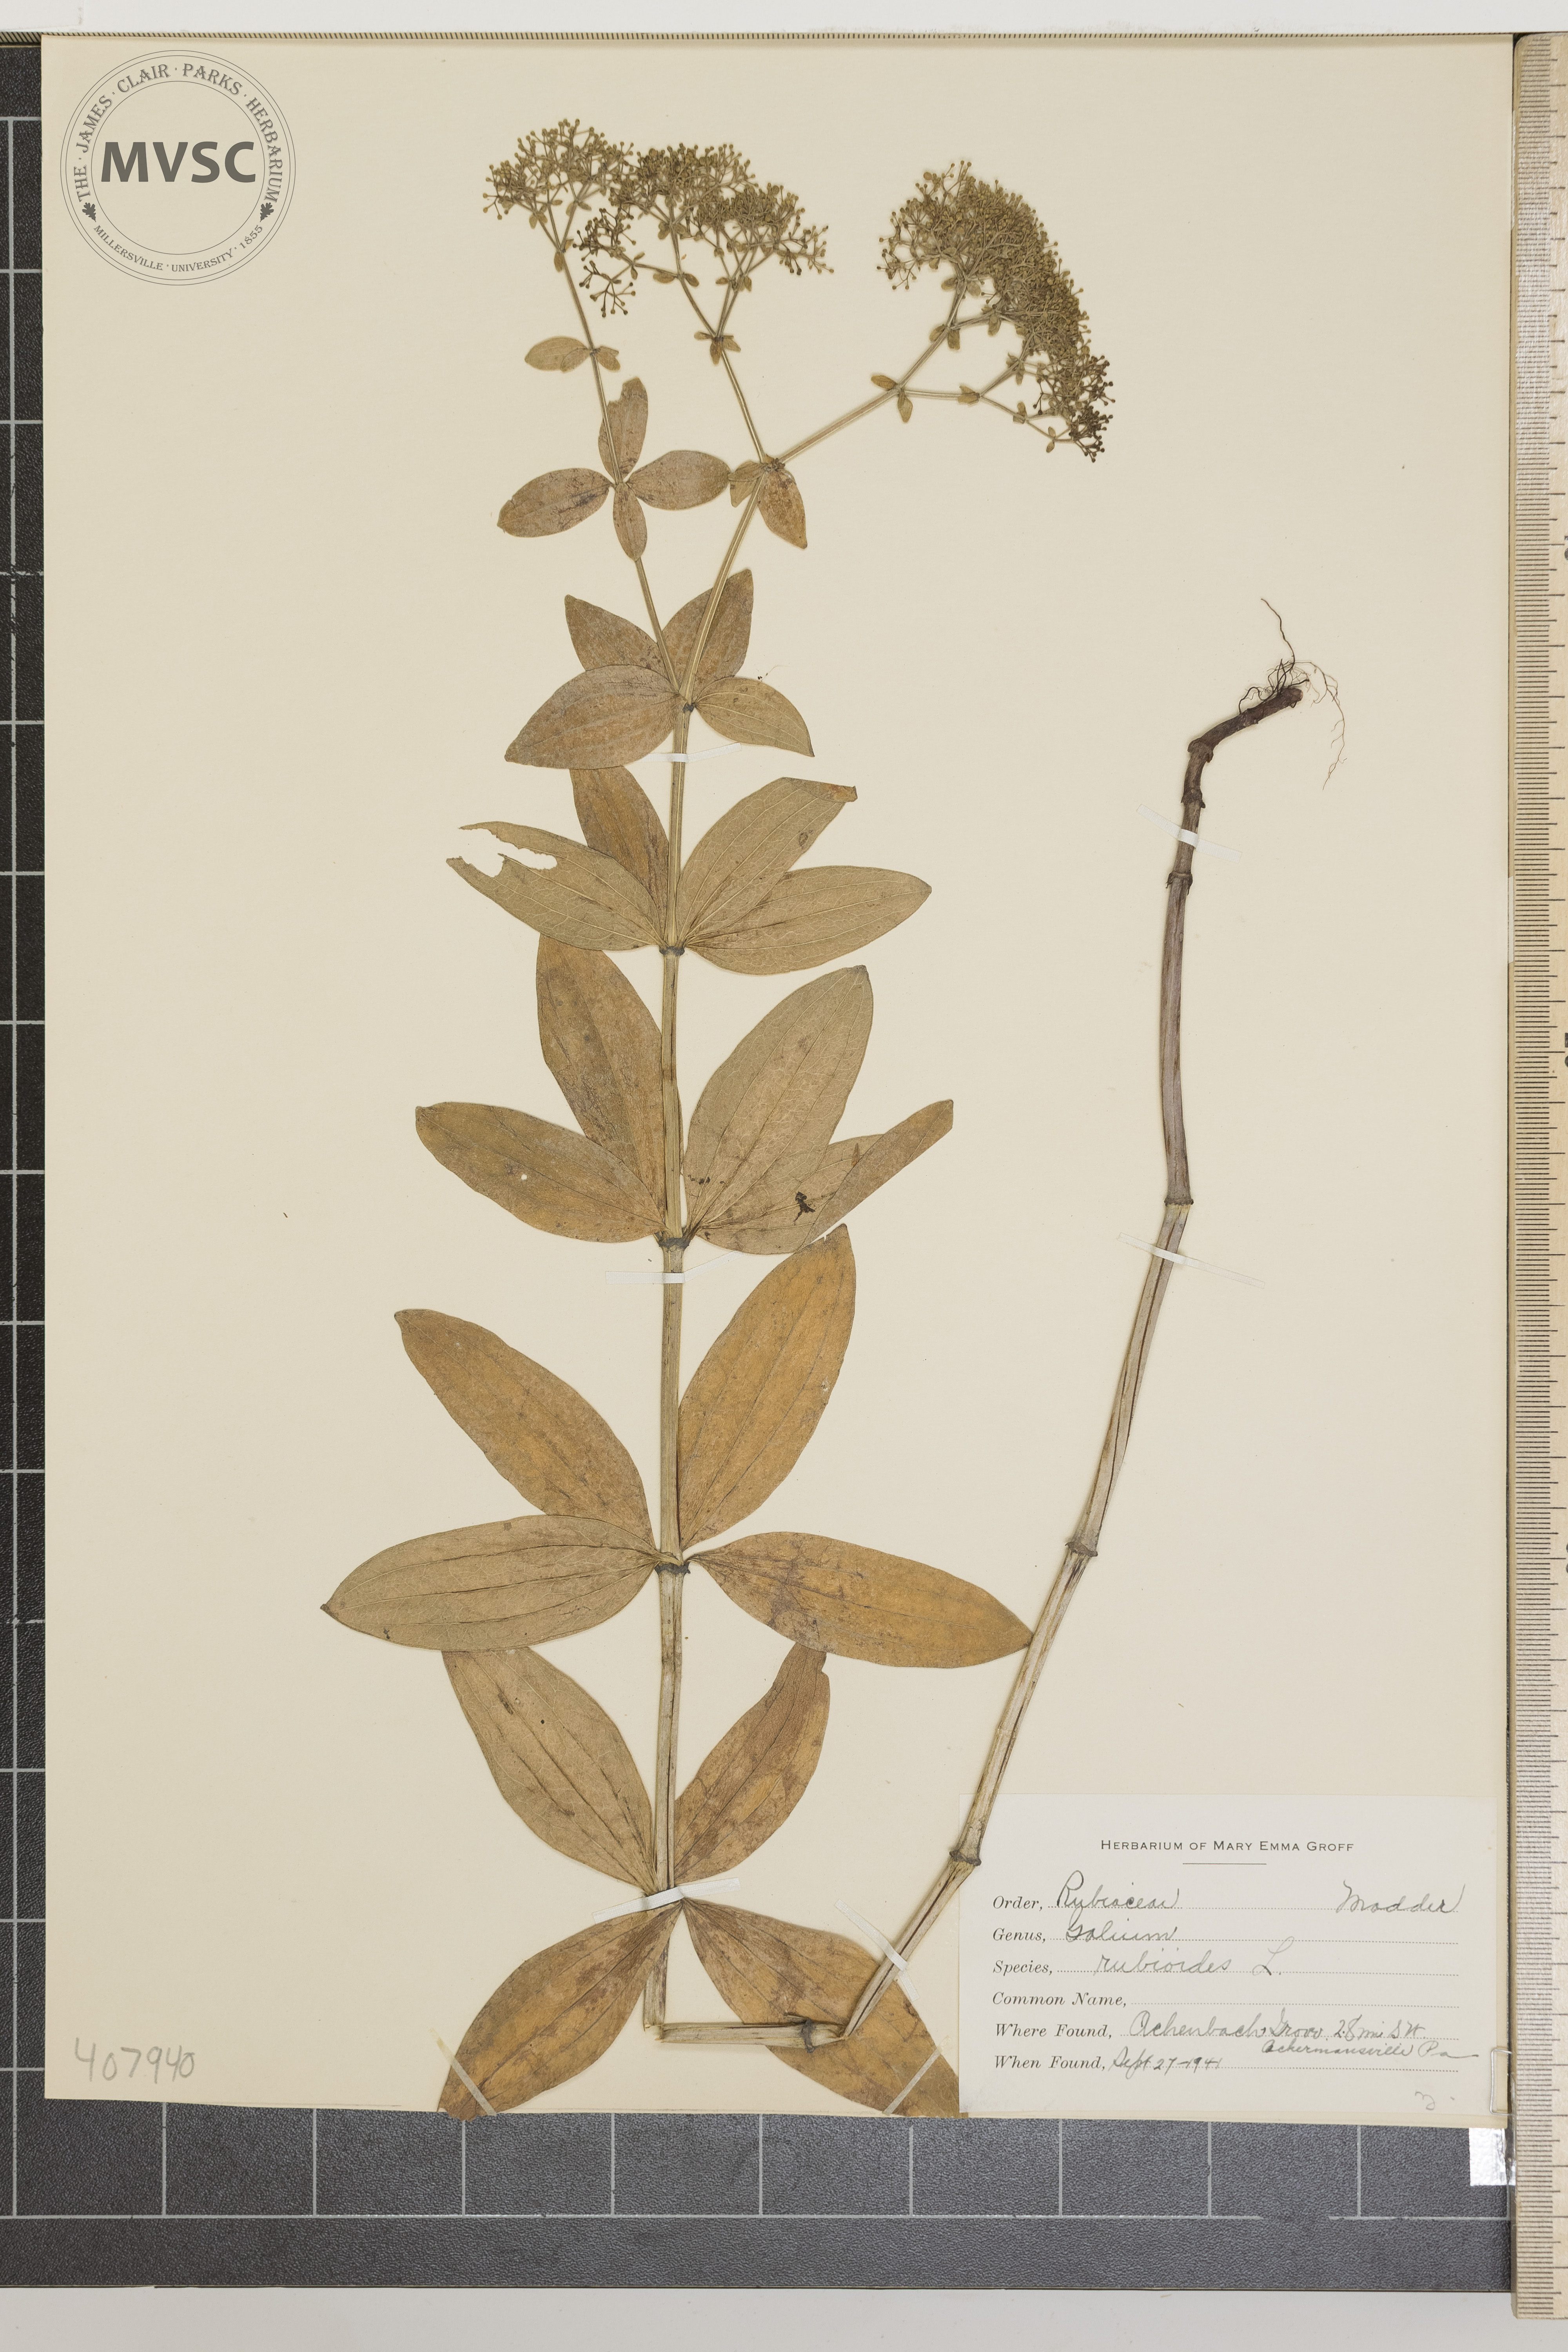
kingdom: Plantae
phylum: Tracheophyta
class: Magnoliopsida
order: Gentianales
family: Rubiaceae
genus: Galium
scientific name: Galium rubioides
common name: European bedstraw
